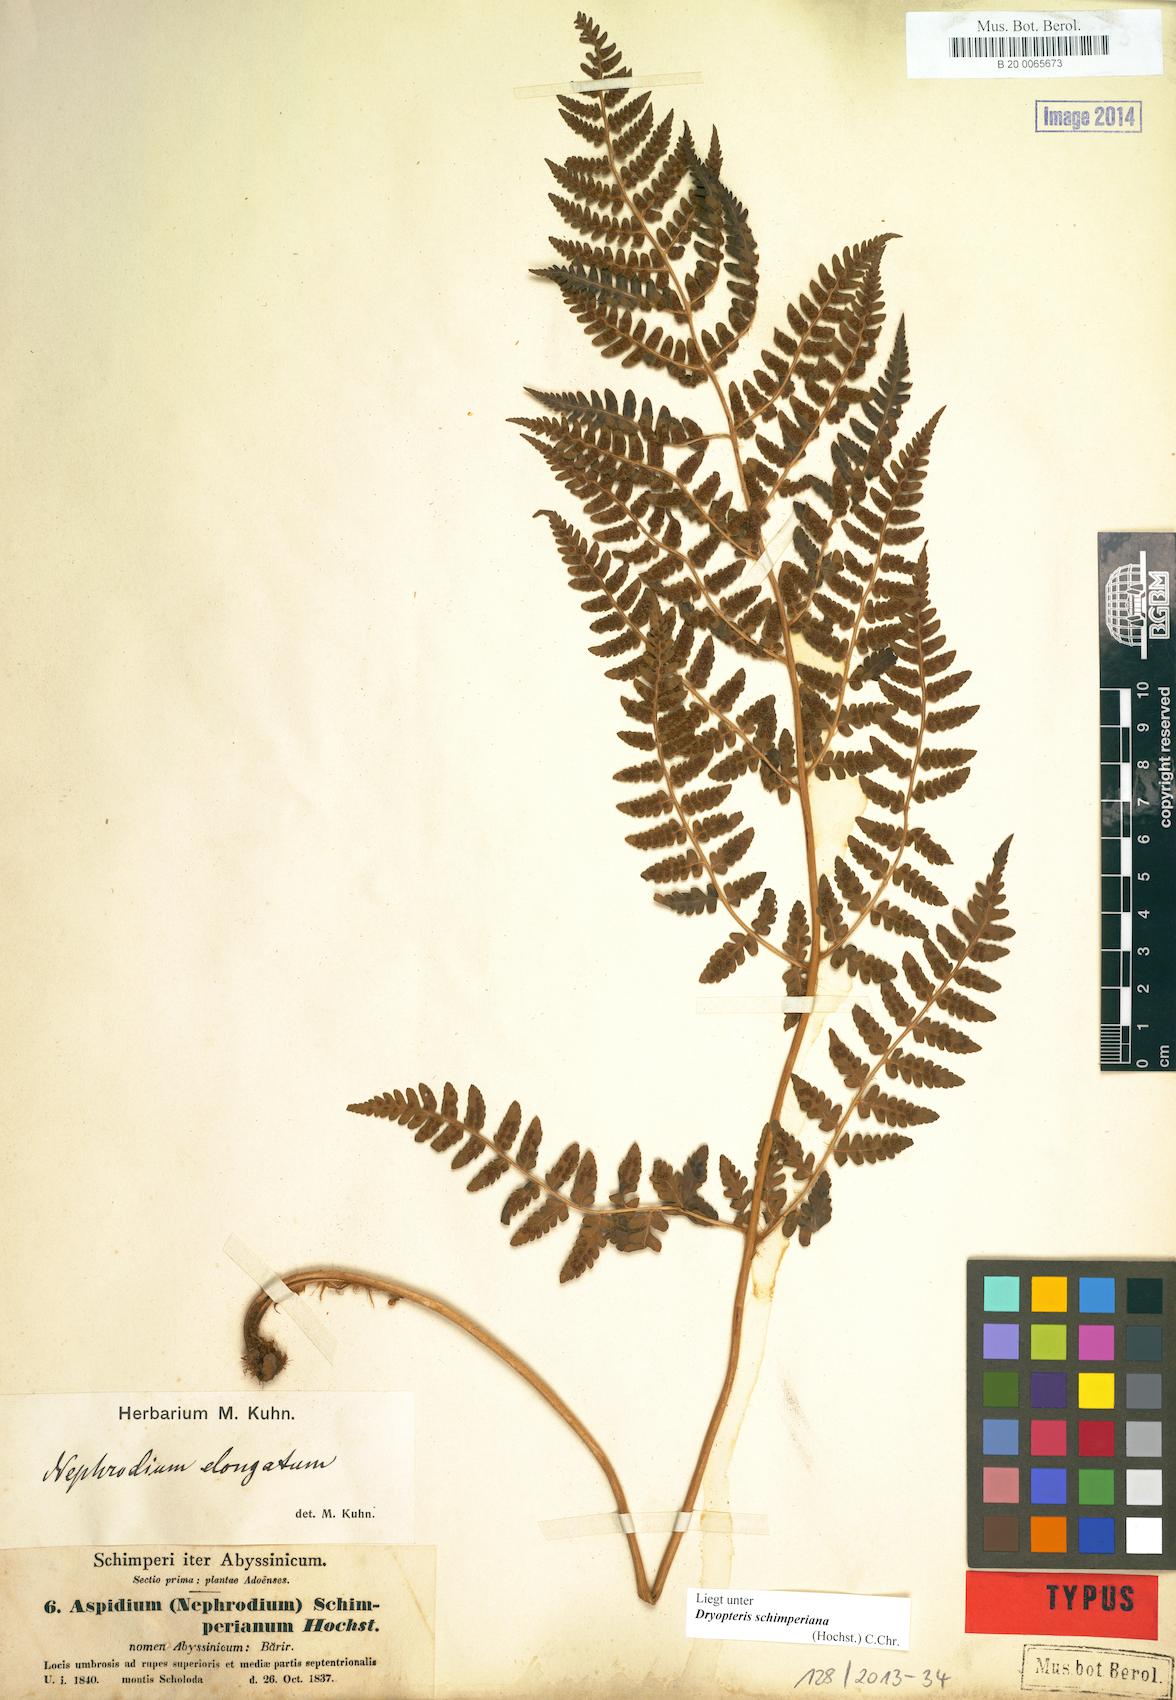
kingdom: Plantae
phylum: Tracheophyta
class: Polypodiopsida
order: Polypodiales
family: Dryopteridaceae
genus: Dryopteris
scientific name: Dryopteris schimperiana
